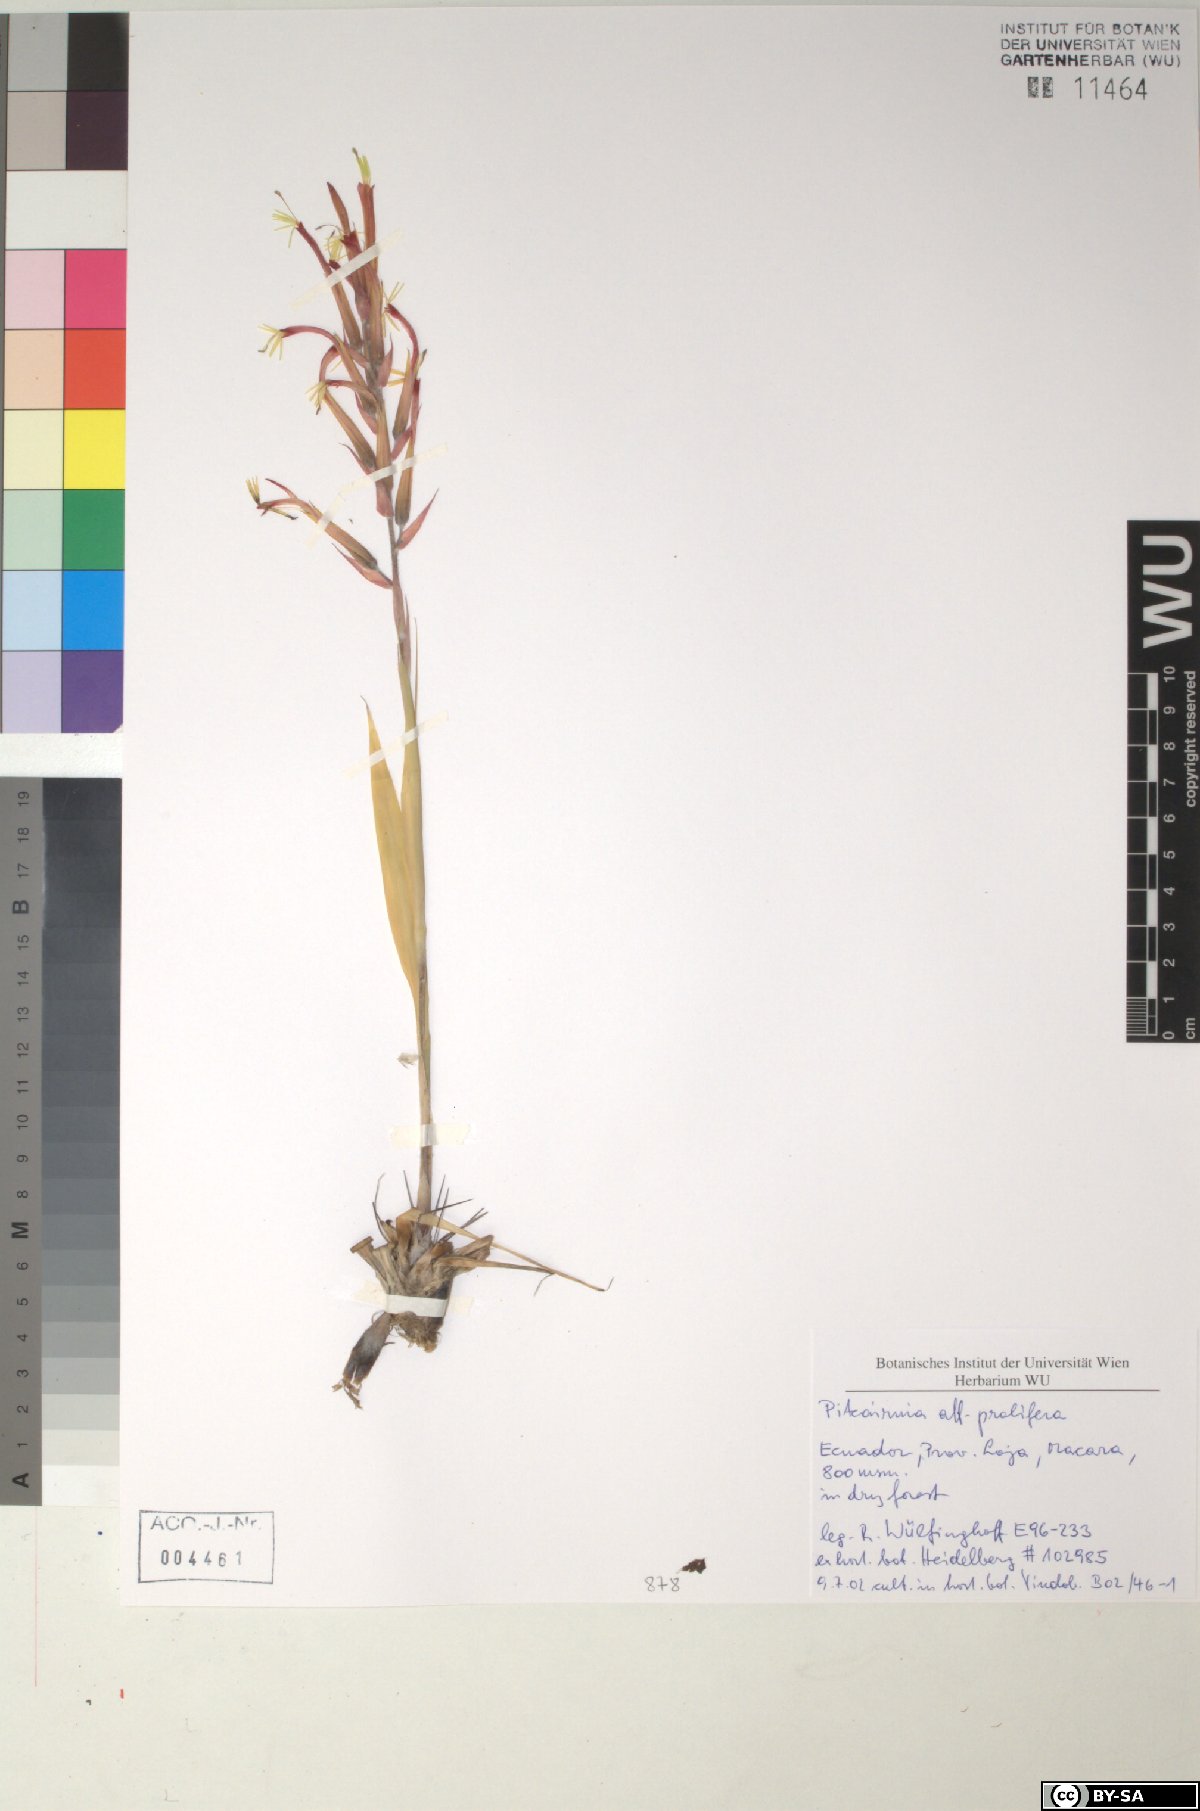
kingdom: Plantae
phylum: Tracheophyta
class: Liliopsida
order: Poales
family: Bromeliaceae
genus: Pitcairnia
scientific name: Pitcairnia prolifera
